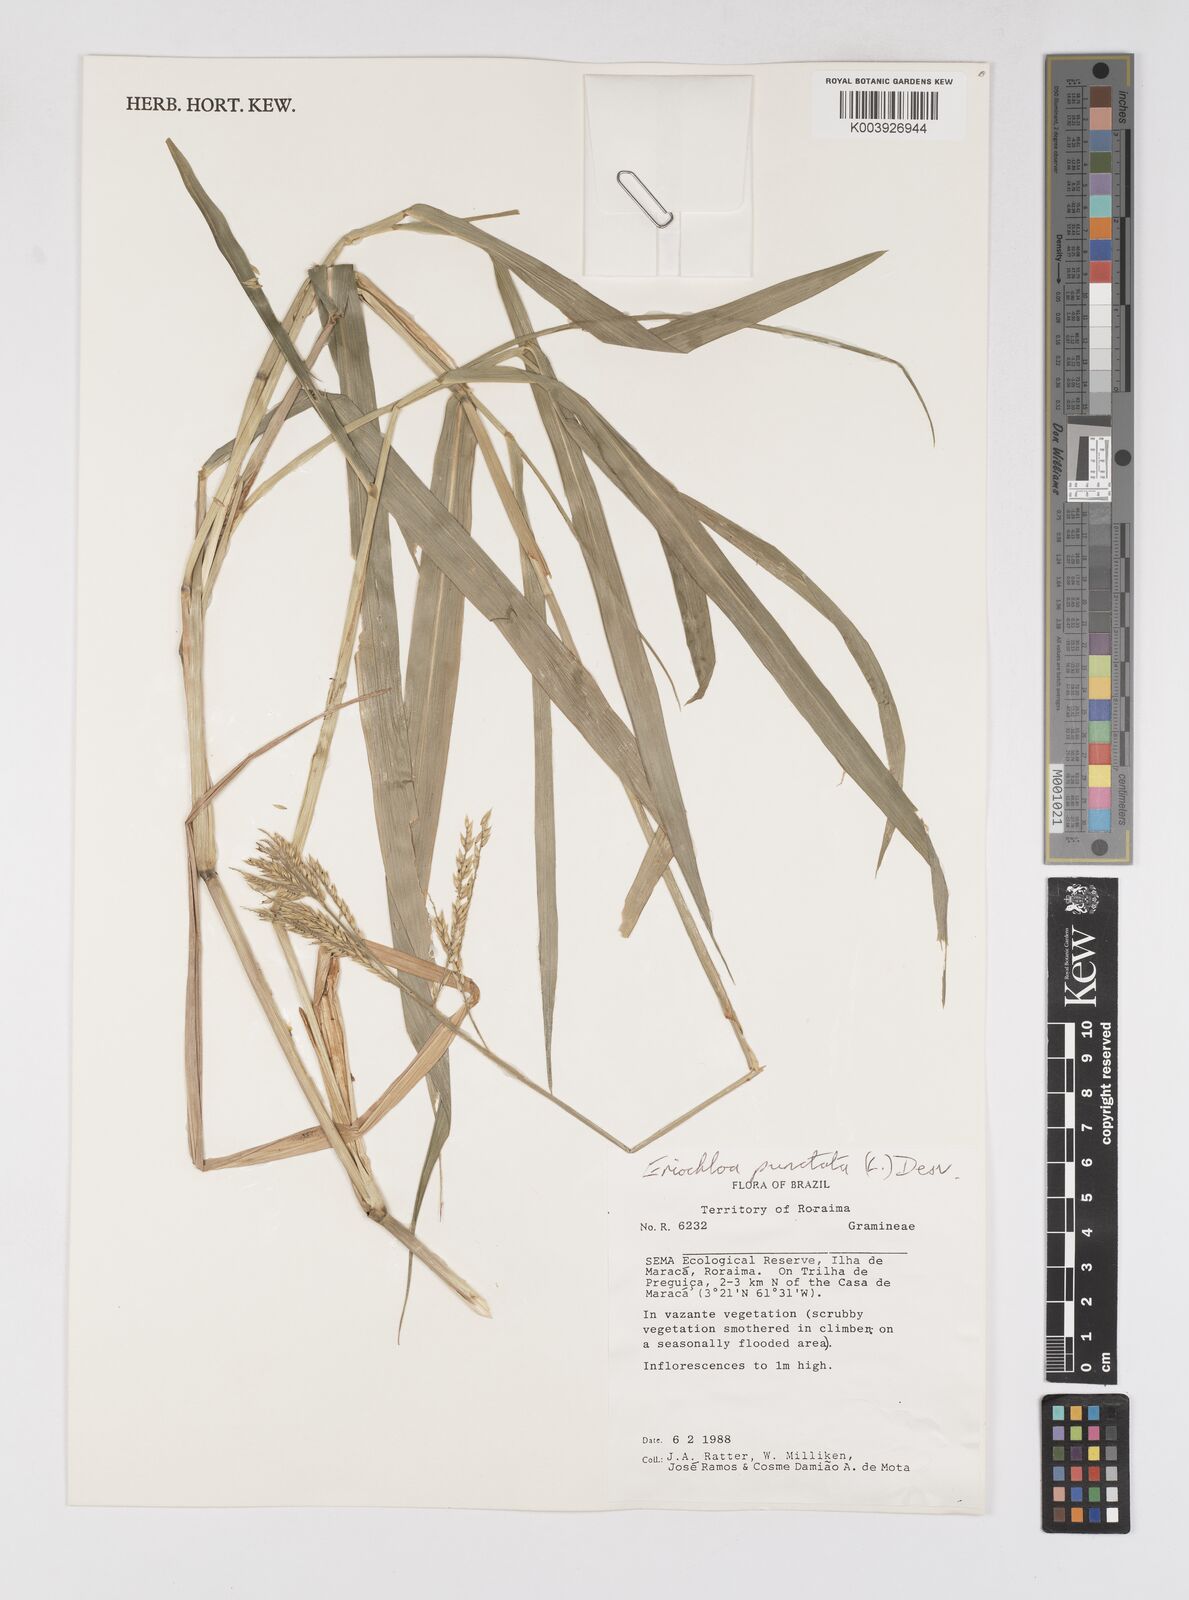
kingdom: Plantae
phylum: Tracheophyta
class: Liliopsida
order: Poales
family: Poaceae
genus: Eriochloa
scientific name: Eriochloa punctata
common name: Louisiana cupgrass
